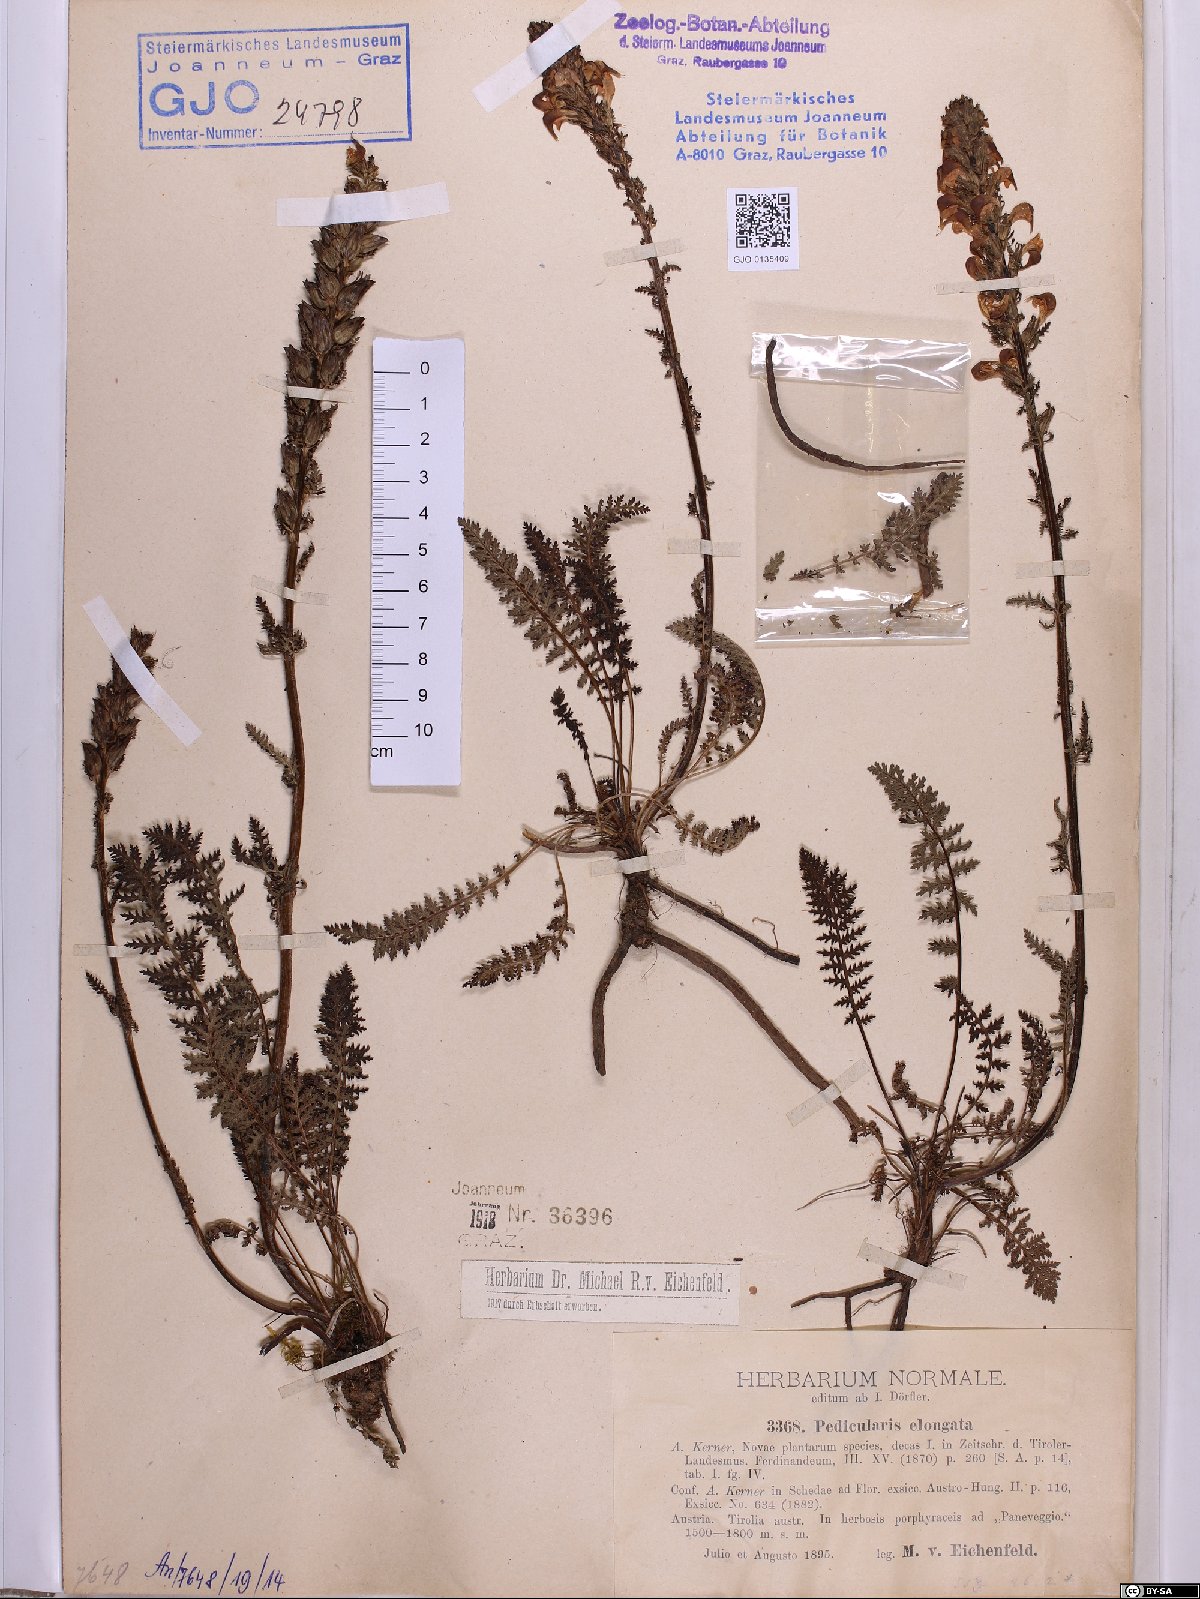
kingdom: Plantae
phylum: Tracheophyta
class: Magnoliopsida
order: Lamiales
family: Orobanchaceae
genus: Pedicularis
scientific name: Pedicularis elongata
